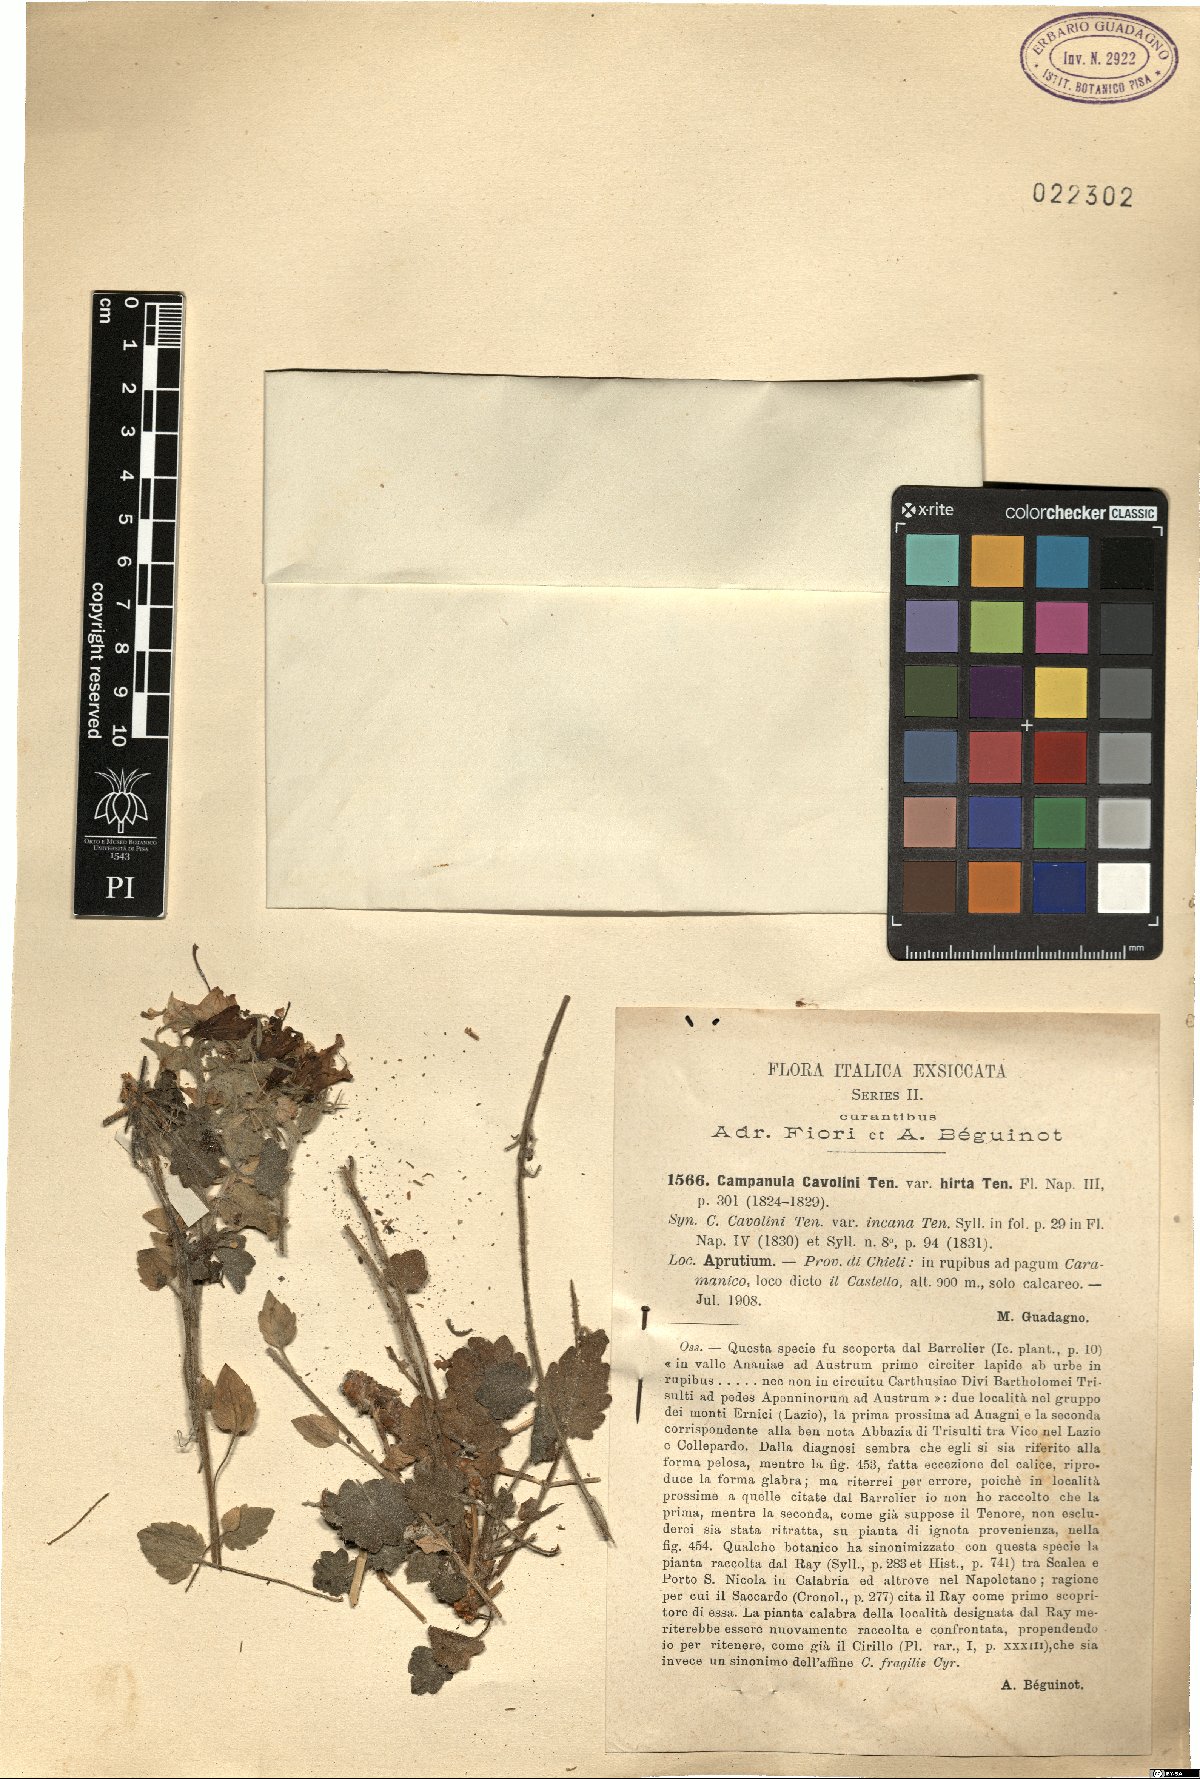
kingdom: Plantae
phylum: Tracheophyta
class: Magnoliopsida
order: Asterales
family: Campanulaceae
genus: Campanula
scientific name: Campanula fragilis
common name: Italian bellflower
